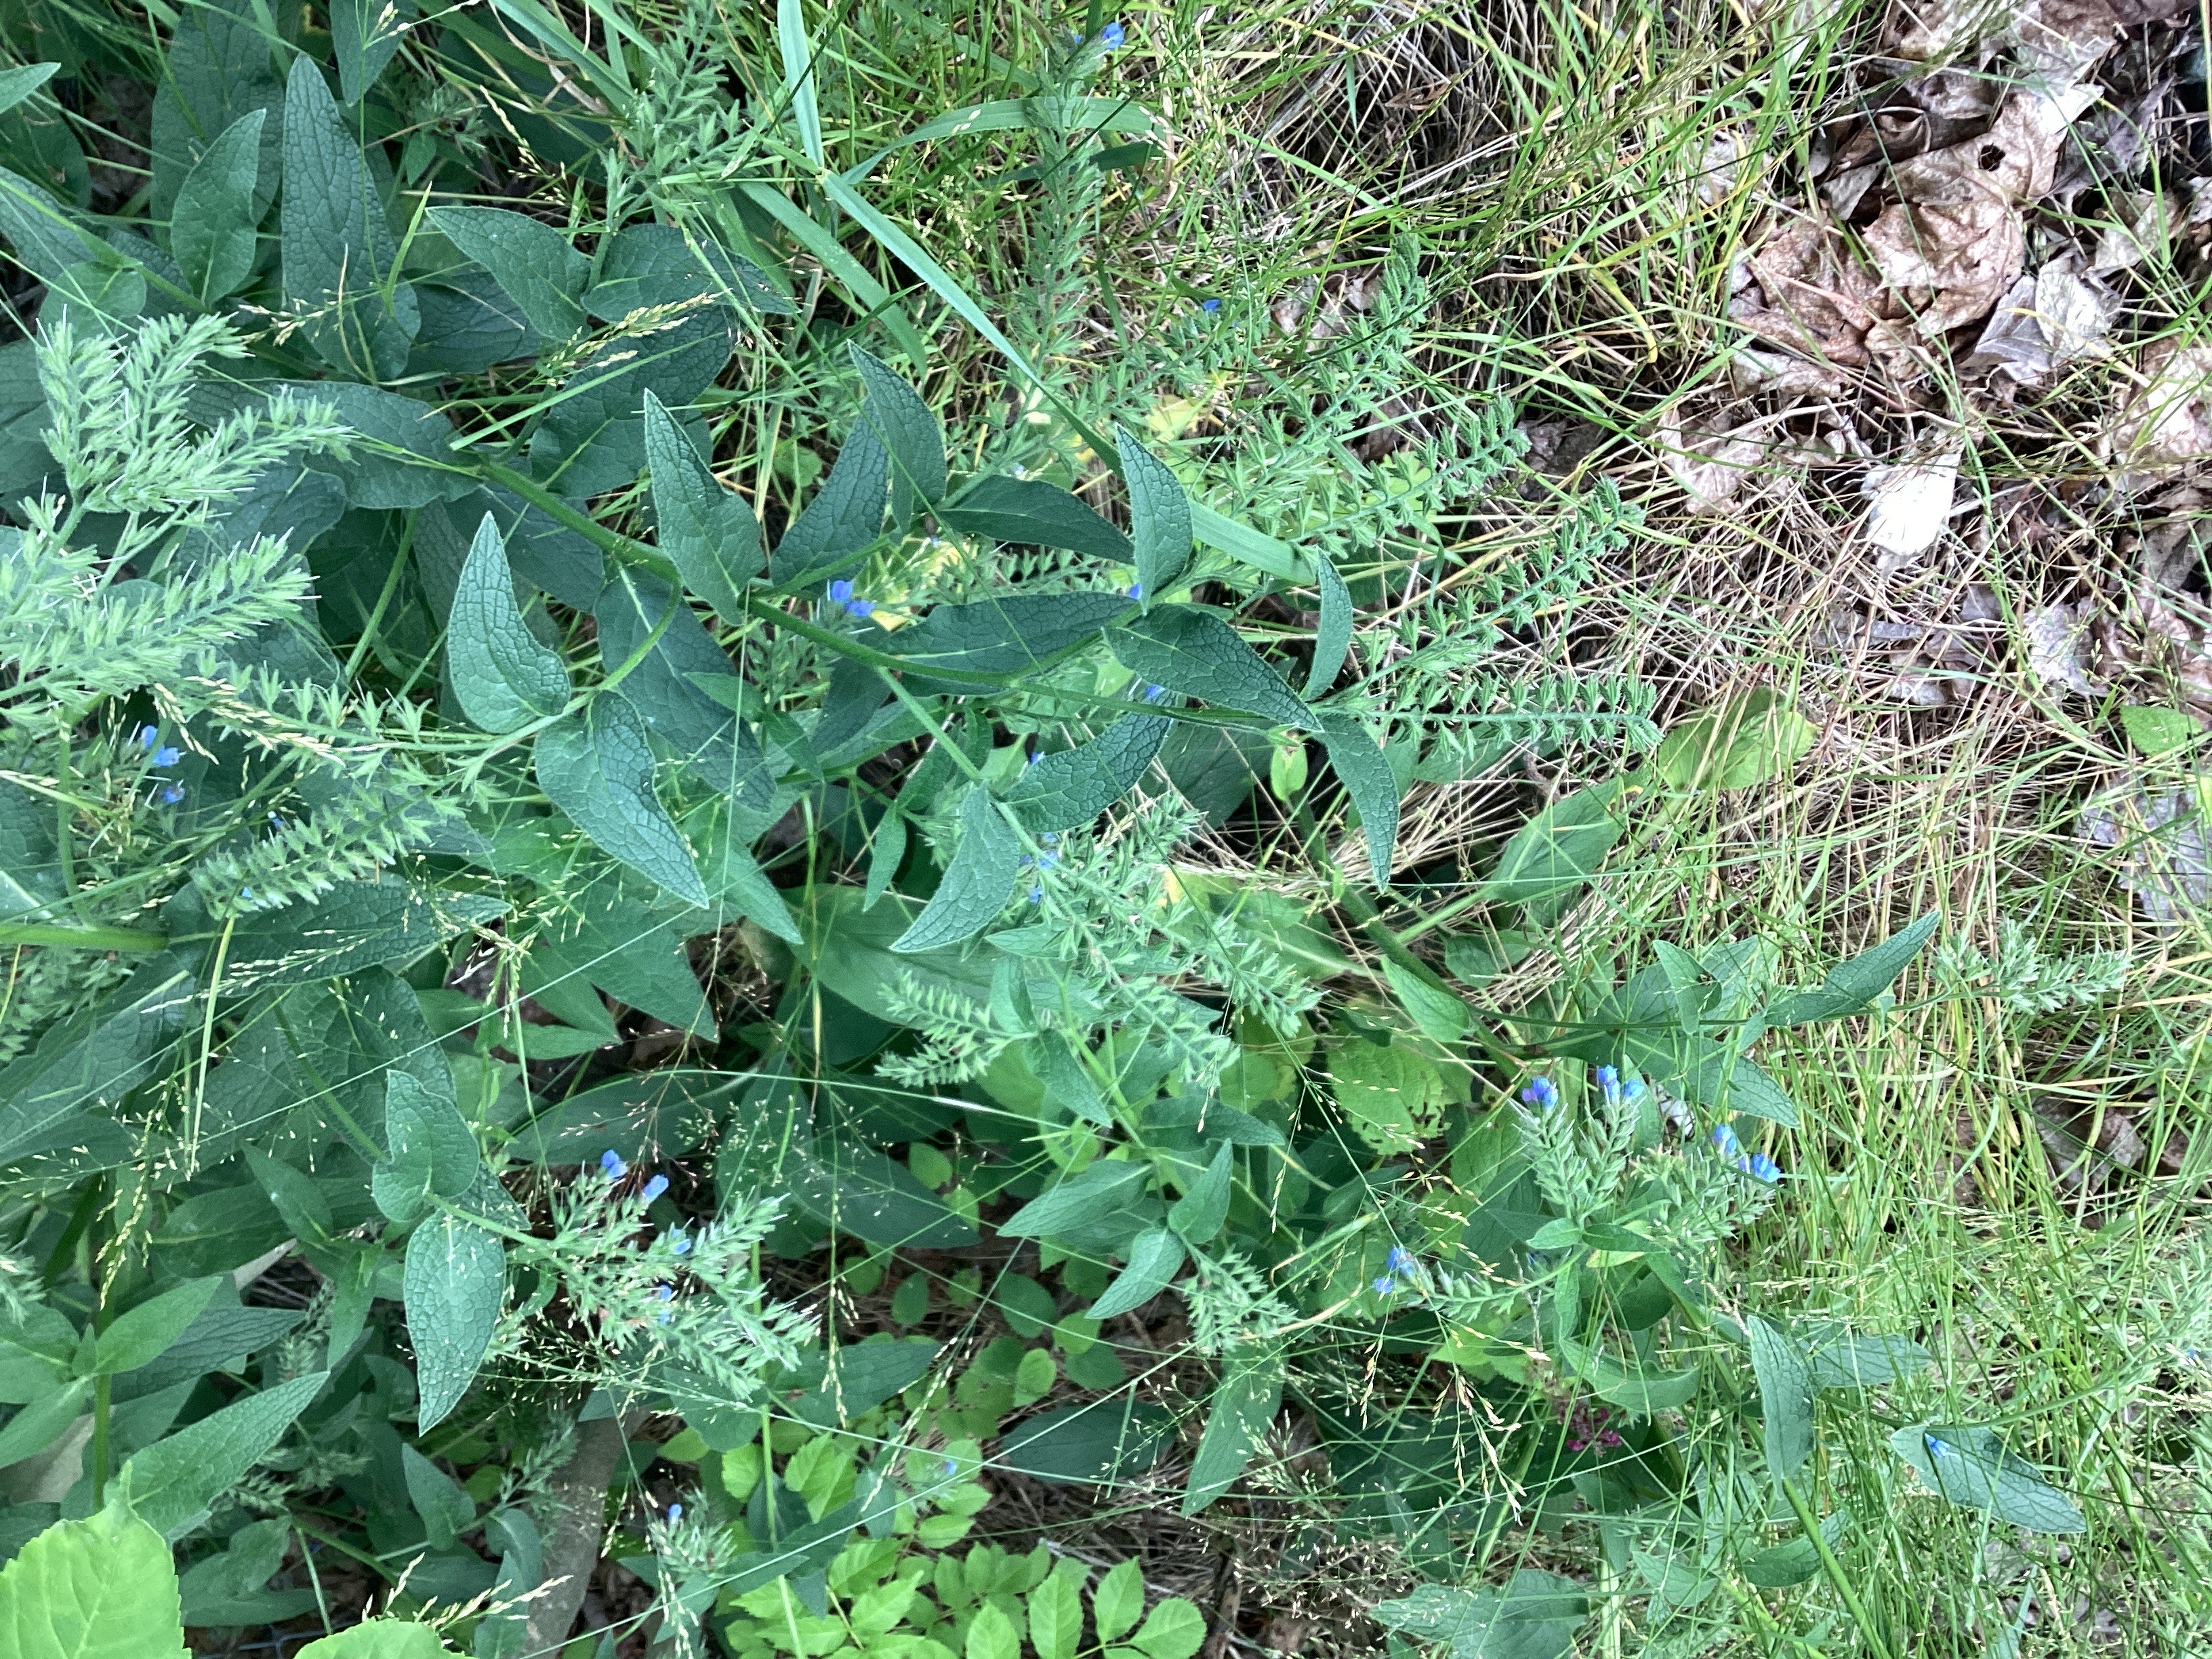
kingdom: Plantae
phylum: Tracheophyta
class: Magnoliopsida
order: Boraginales
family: Boraginaceae
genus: Symphytum
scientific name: Symphytum asperum
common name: fôrvalurt
